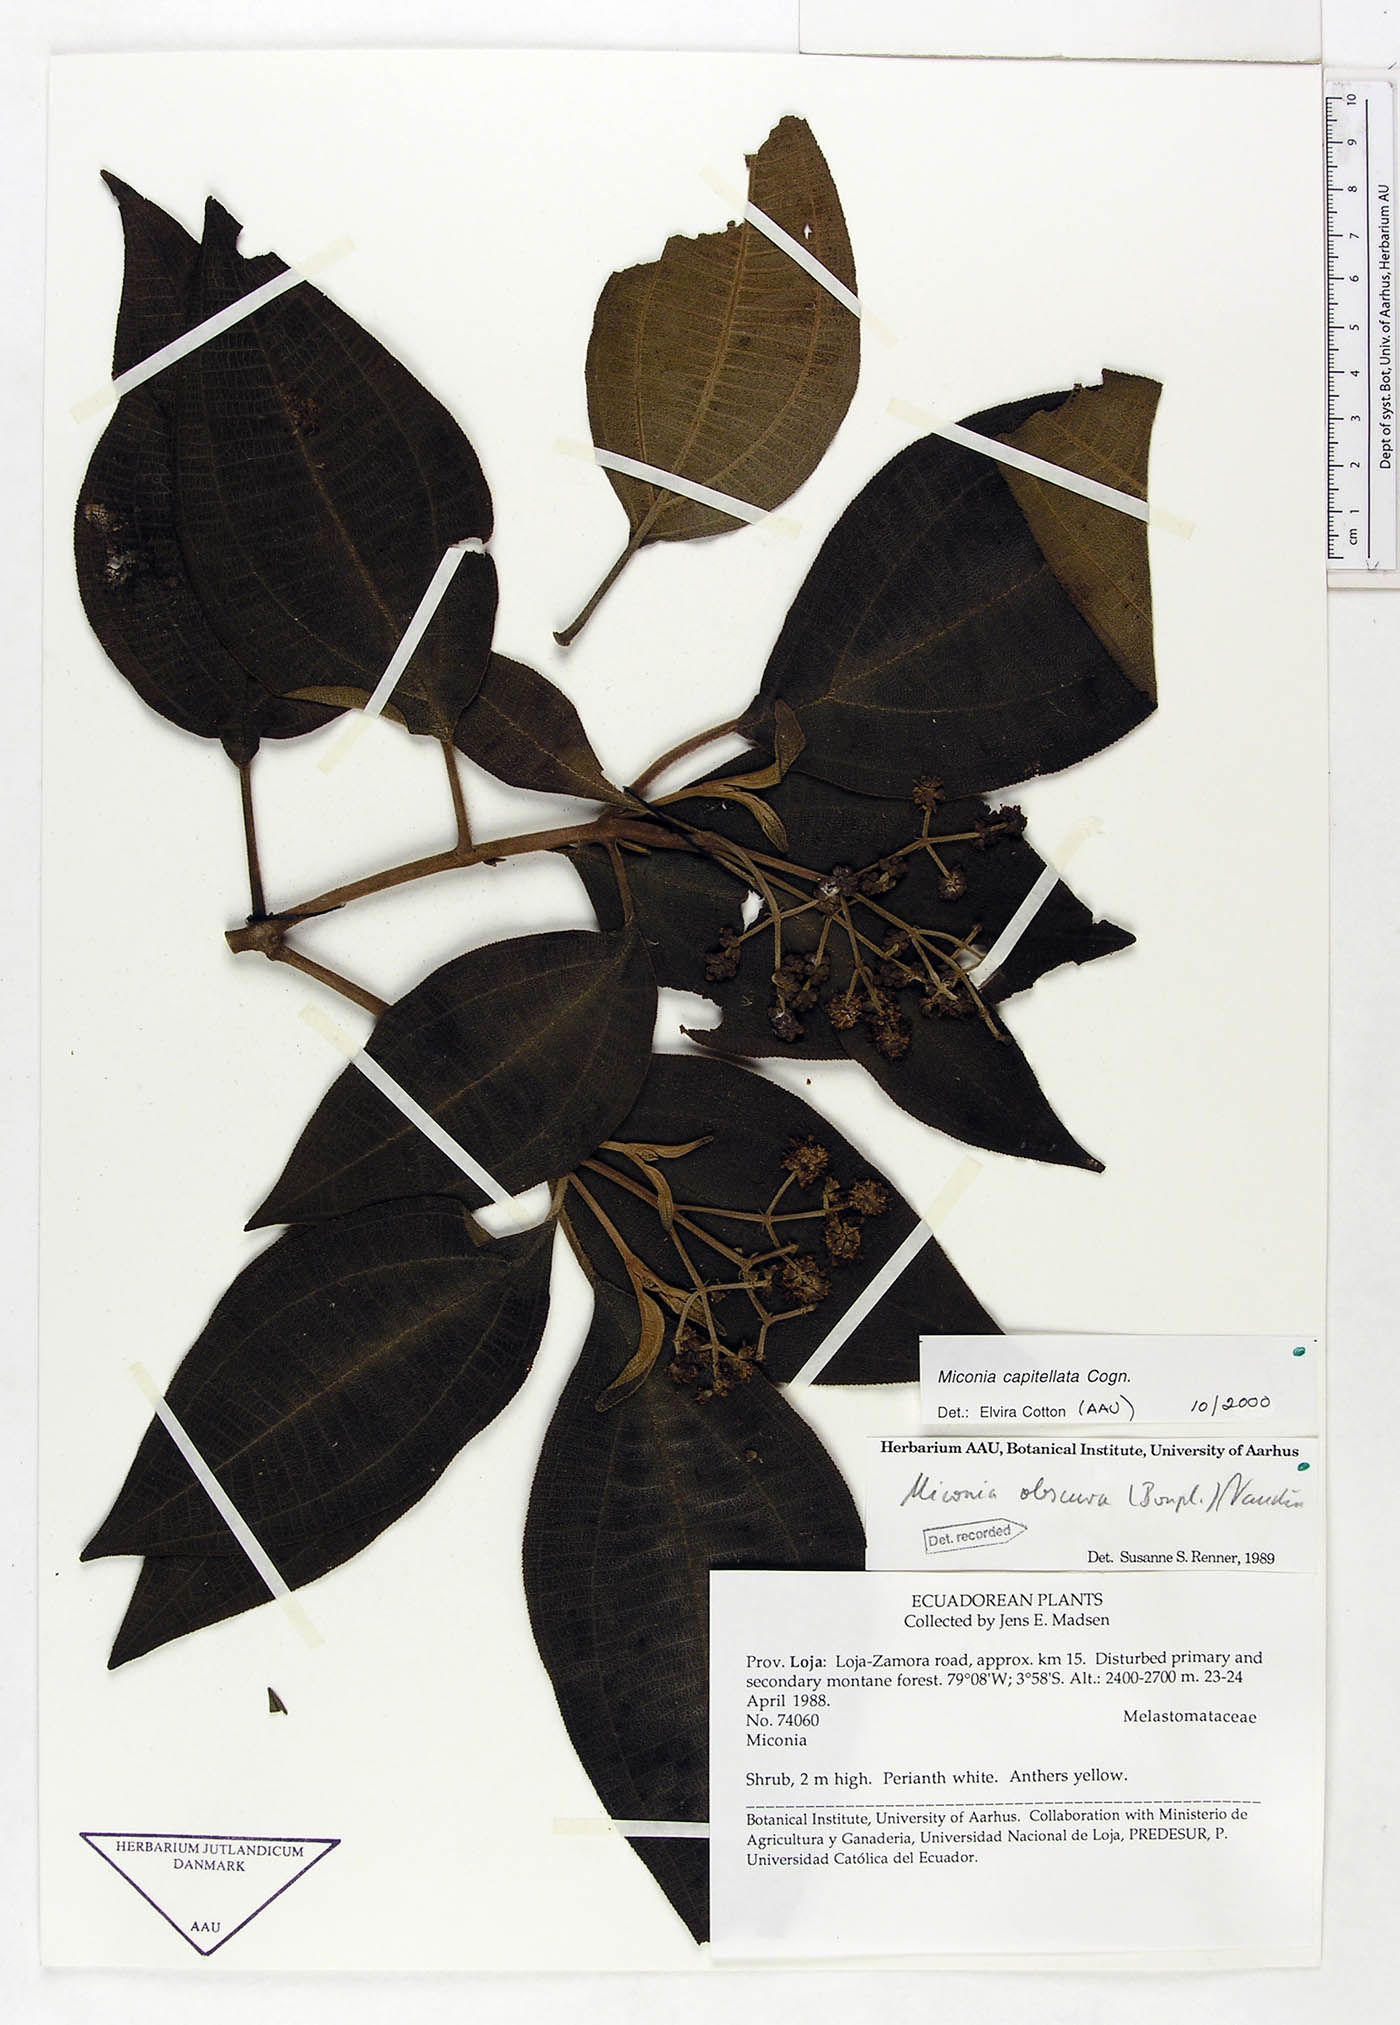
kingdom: Plantae
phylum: Tracheophyta
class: Magnoliopsida
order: Myrtales
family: Melastomataceae
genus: Miconia
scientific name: Miconia obscura
